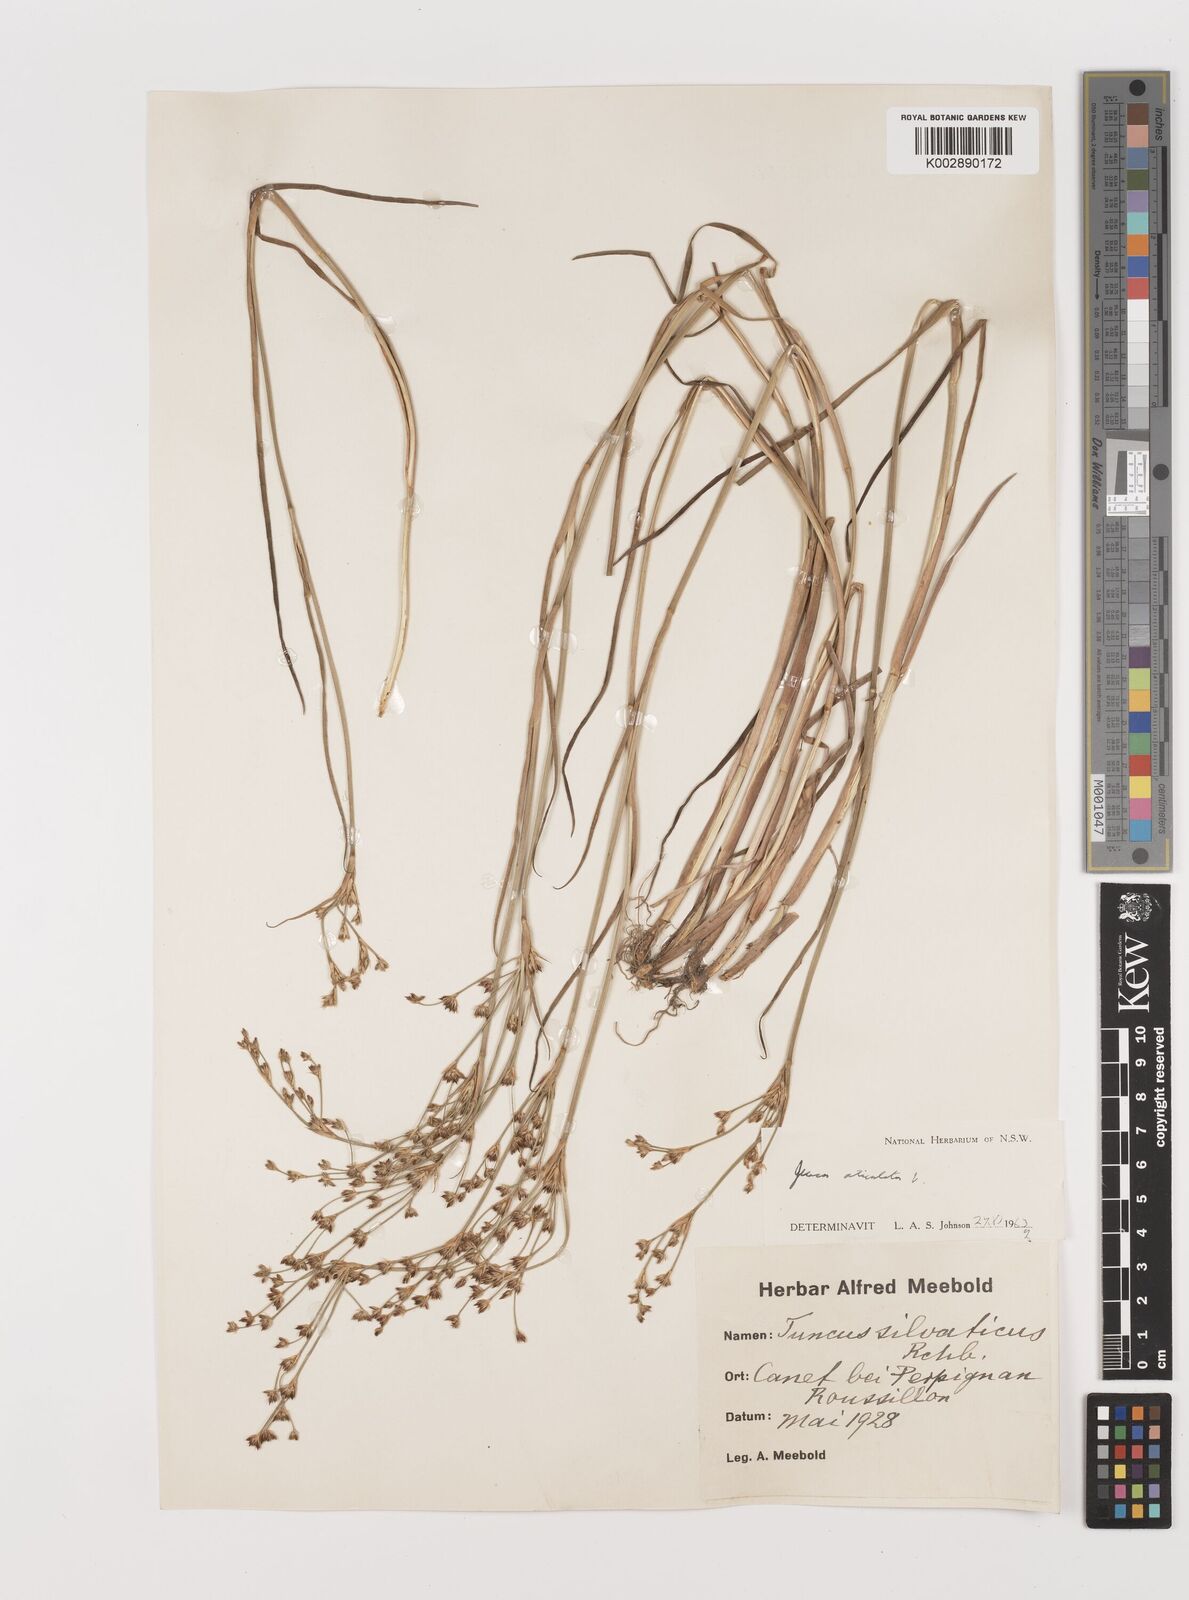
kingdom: Plantae
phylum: Tracheophyta
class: Liliopsida
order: Poales
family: Juncaceae
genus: Juncus
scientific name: Juncus articulatus
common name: Jointed rush
